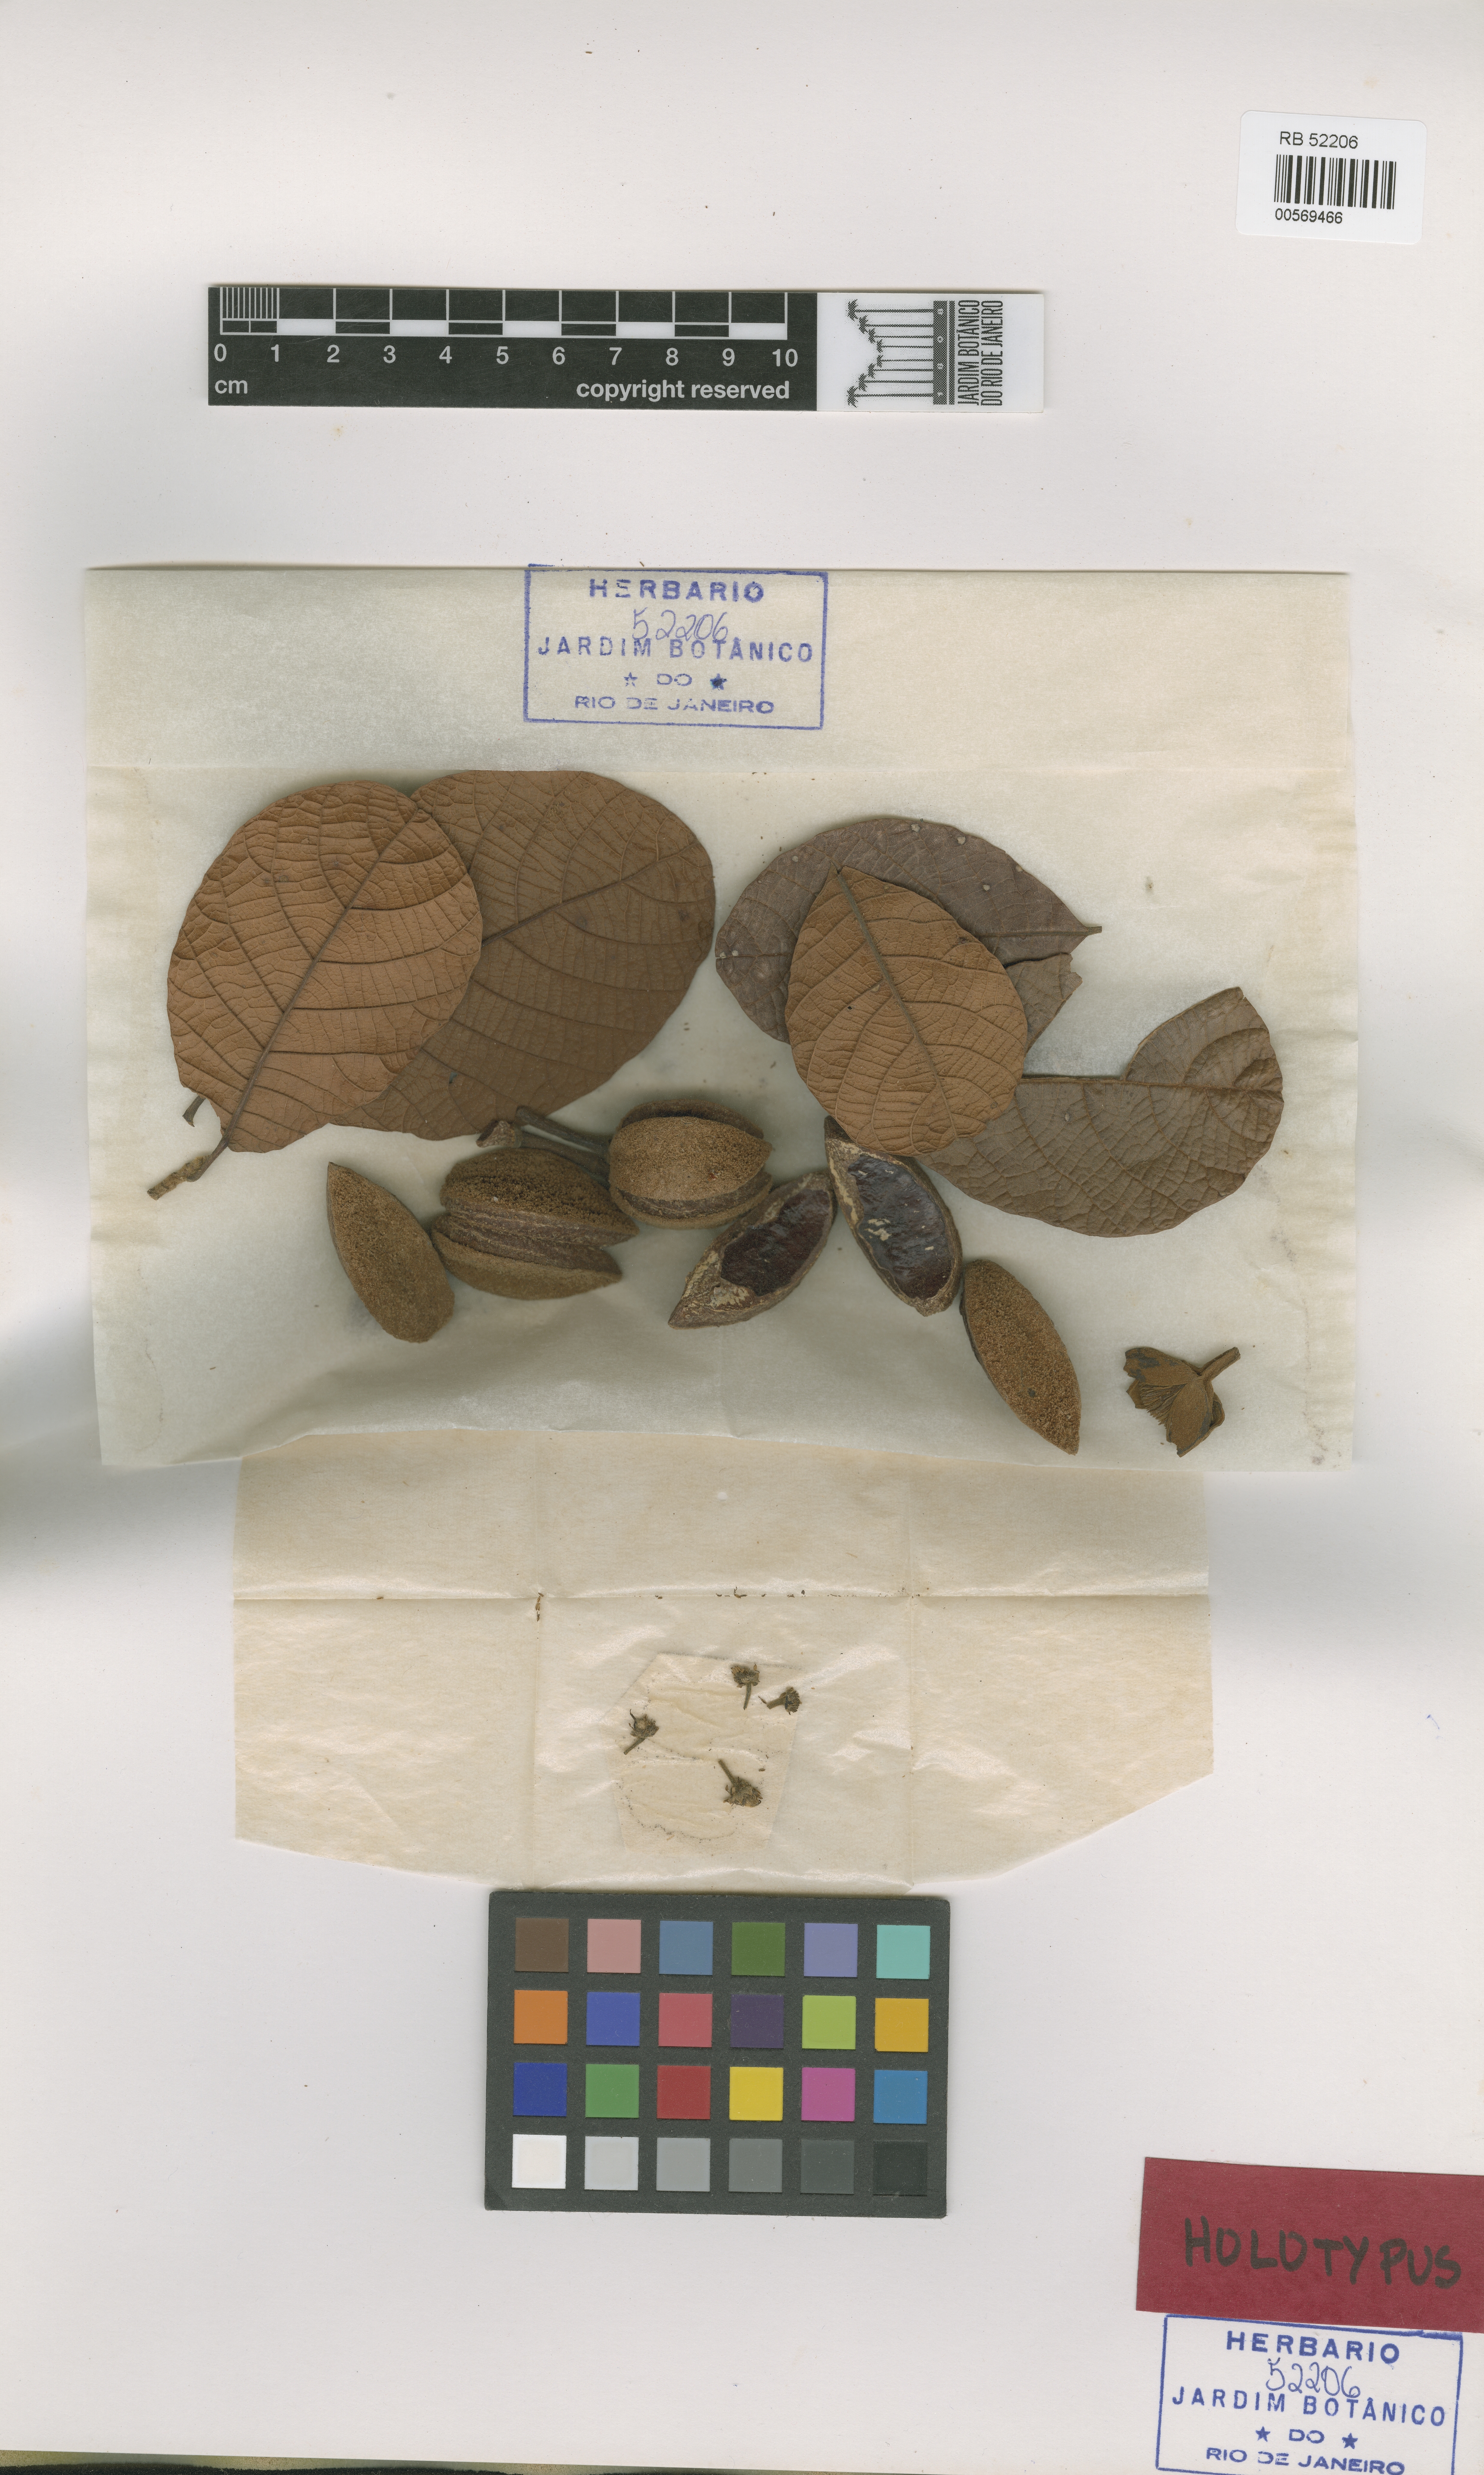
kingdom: Plantae
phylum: Tracheophyta
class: Magnoliopsida
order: Oxalidales
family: Elaeocarpaceae
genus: Sloanea
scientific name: Sloanea granulosa
